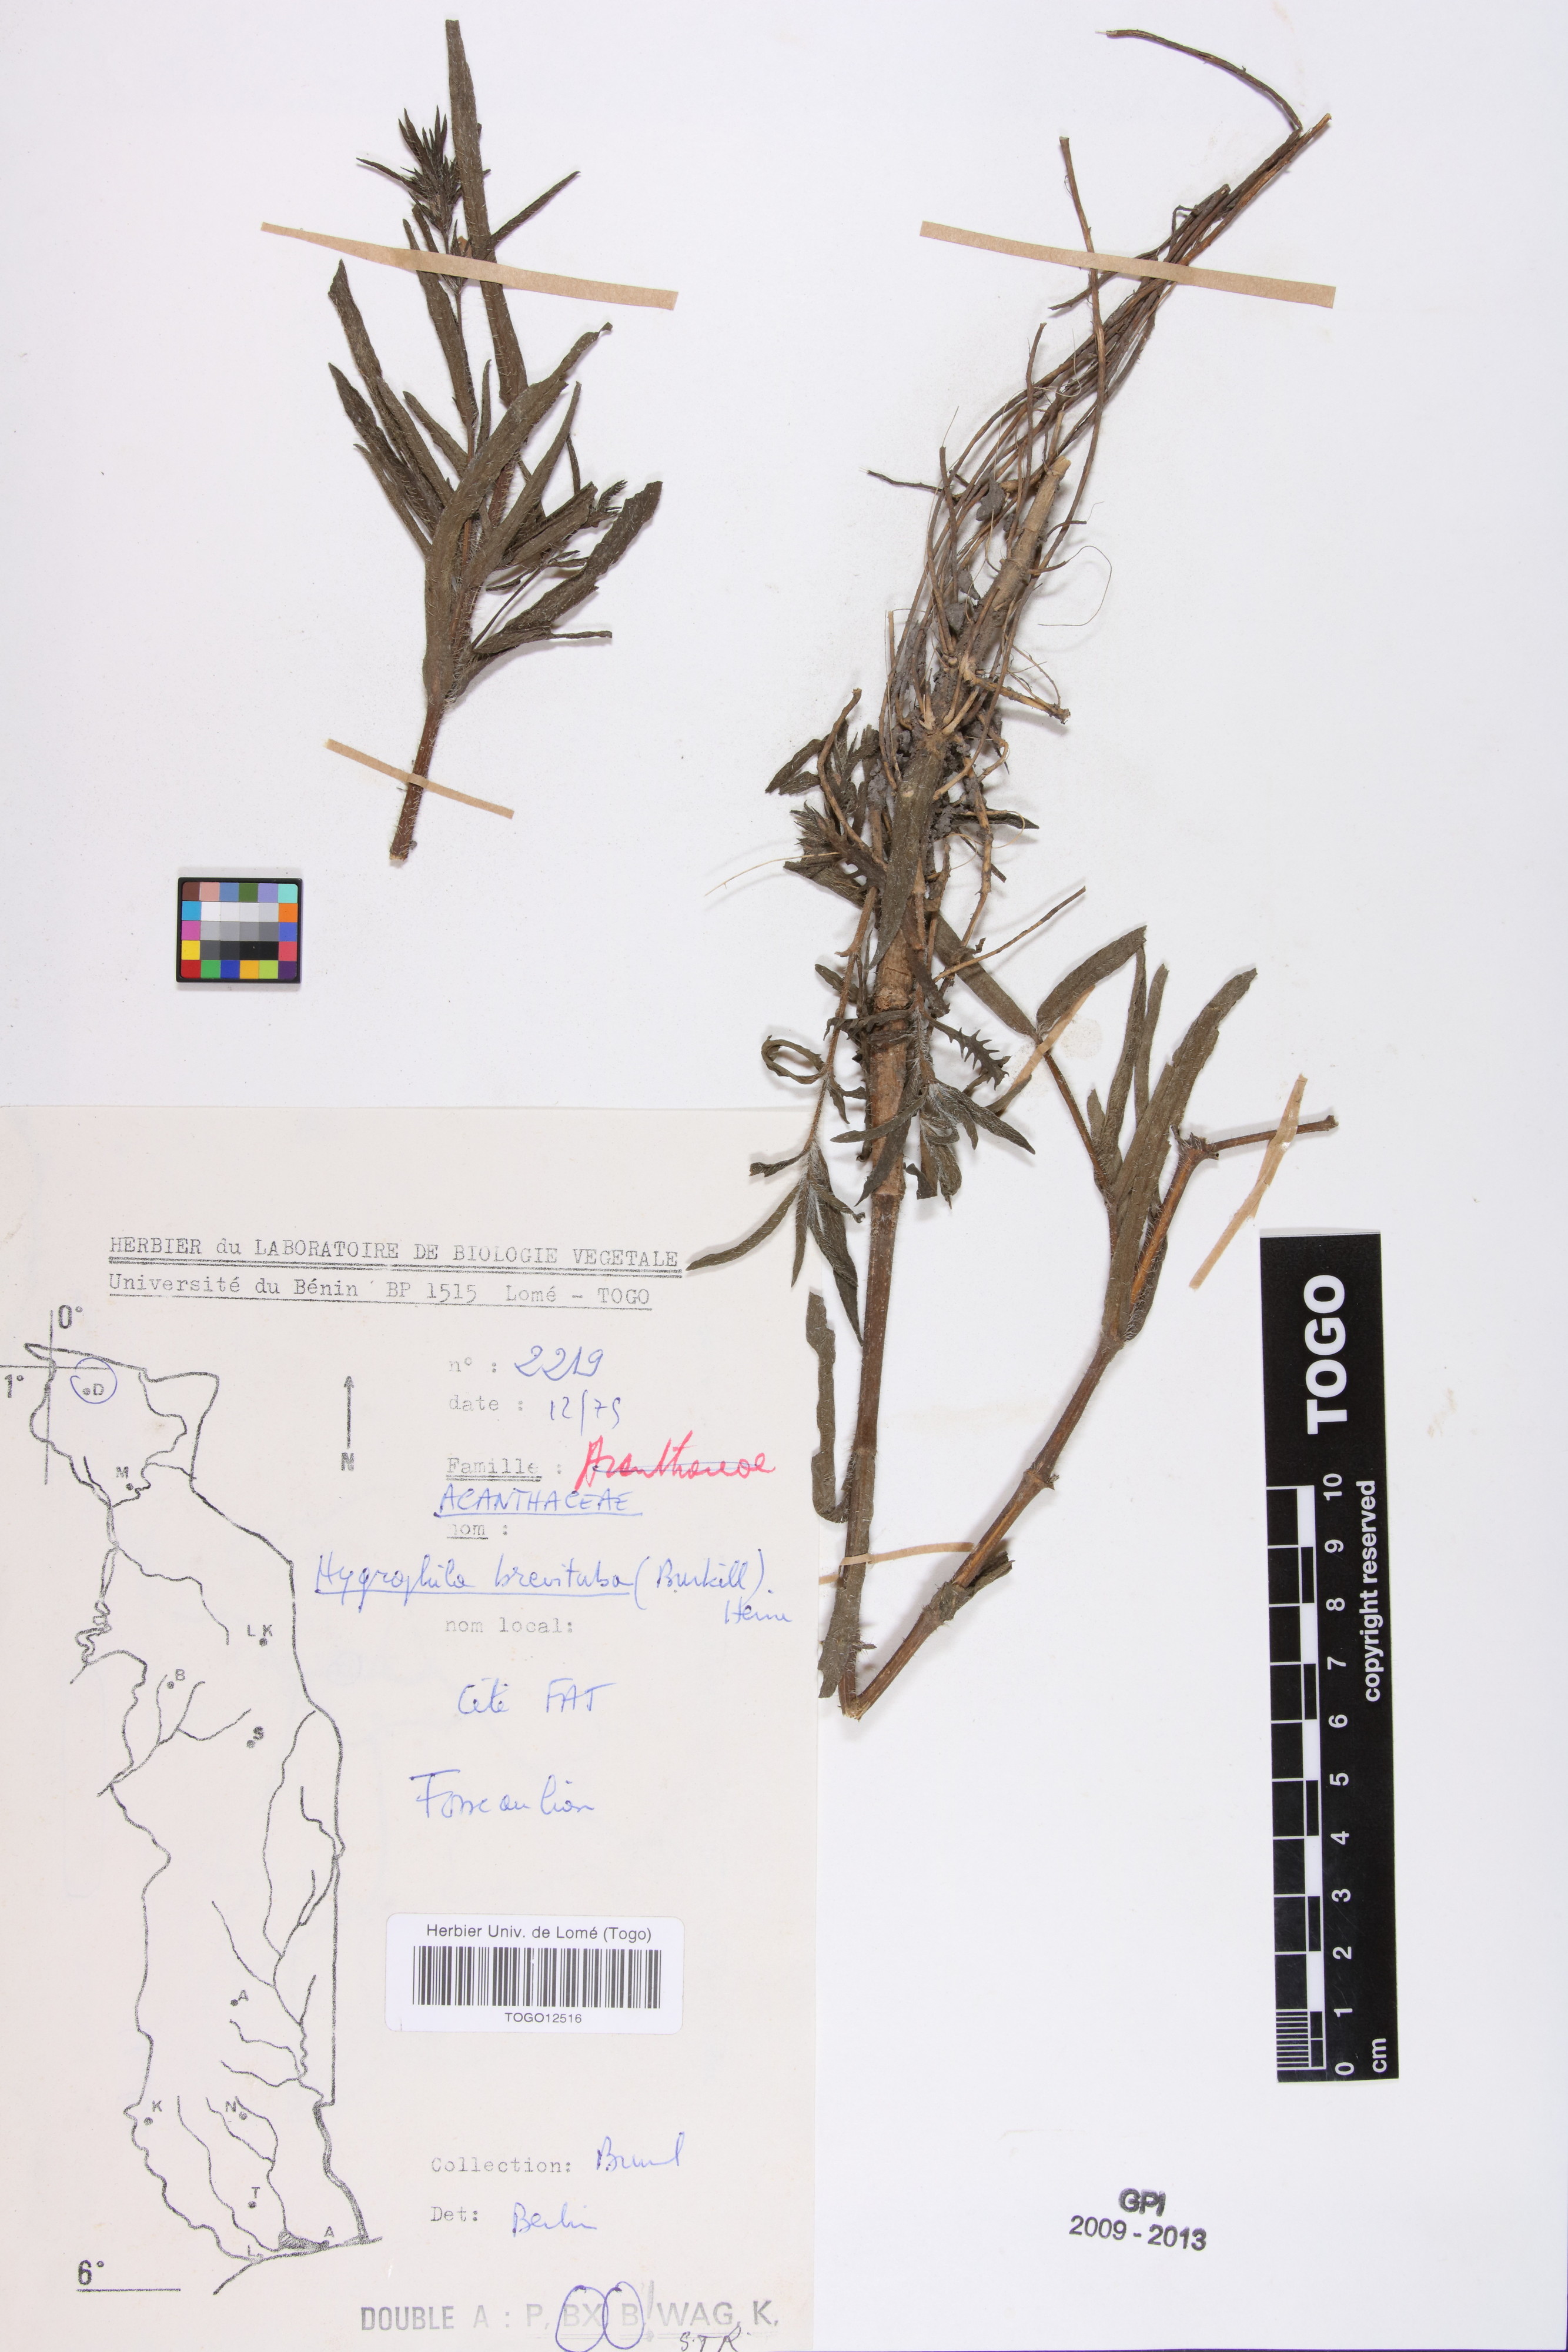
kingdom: Plantae
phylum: Tracheophyta
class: Magnoliopsida
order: Lamiales
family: Acanthaceae
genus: Hygrophila
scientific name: Hygrophila brevituba
